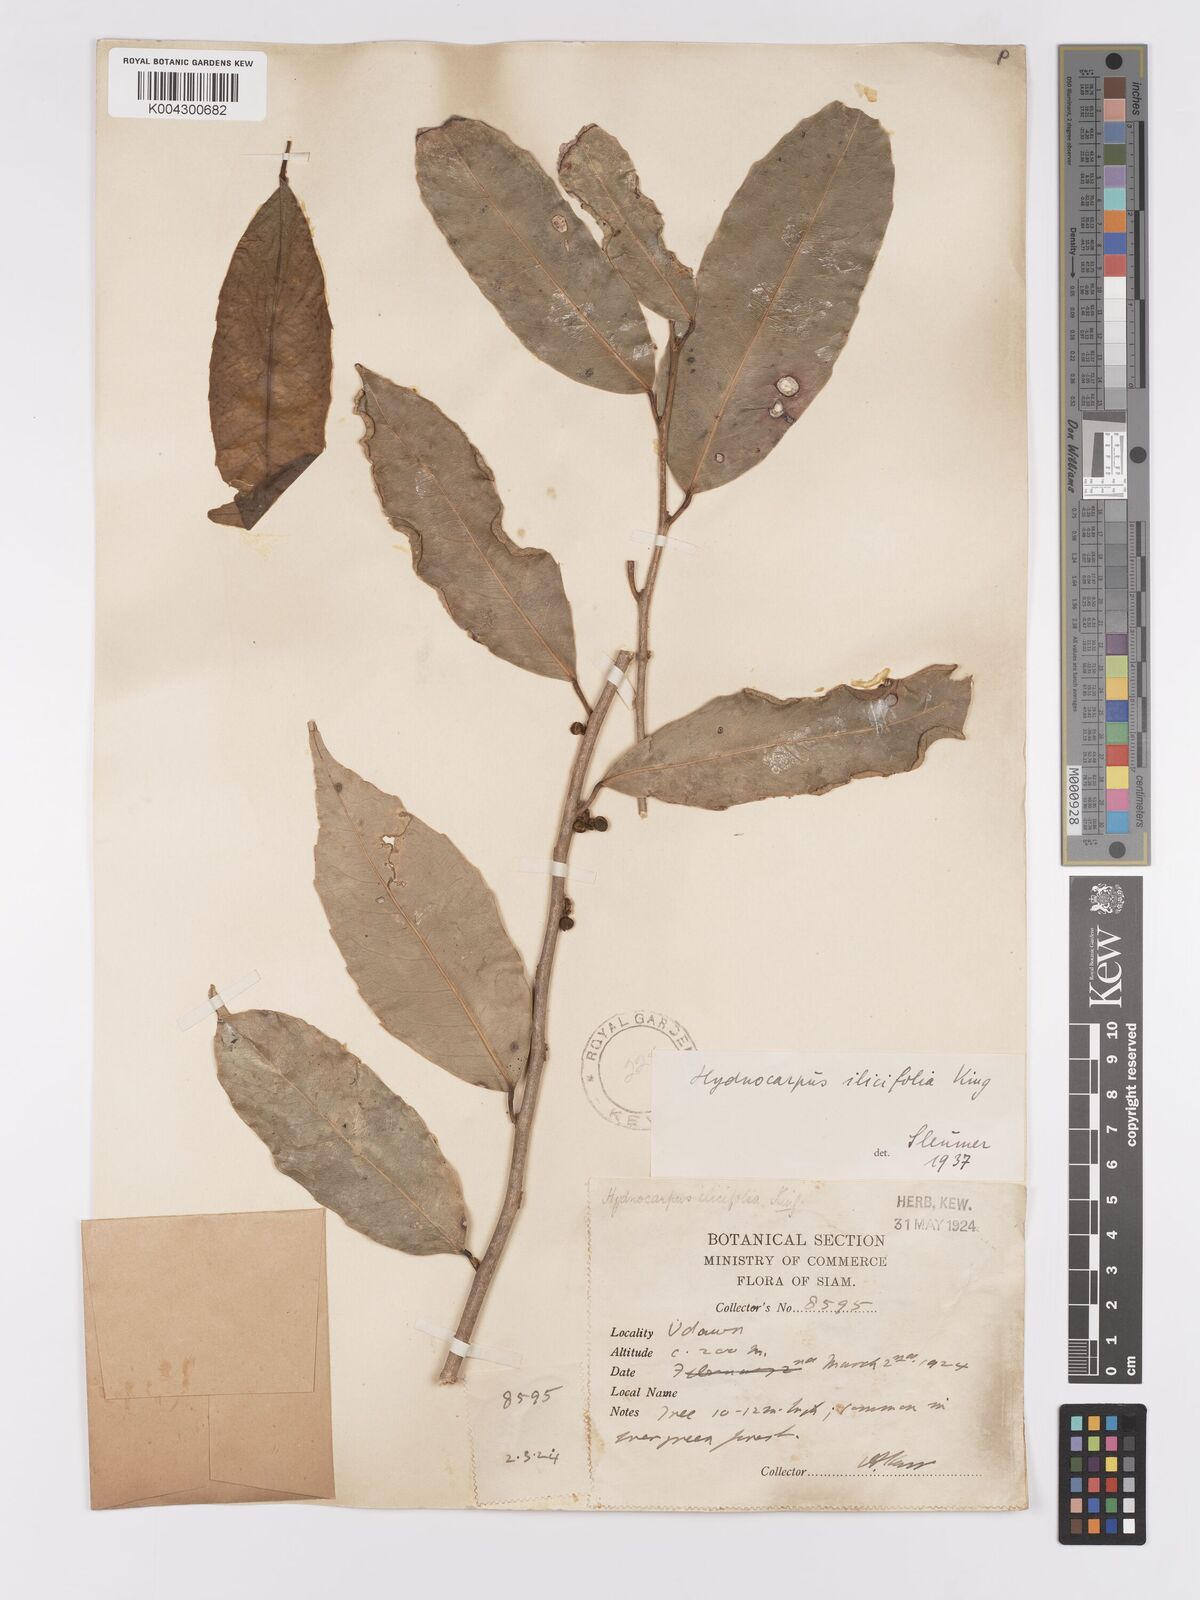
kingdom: Plantae
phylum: Tracheophyta
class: Magnoliopsida
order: Malpighiales
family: Achariaceae
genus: Hydnocarpus
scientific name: Hydnocarpus ilicifolius
